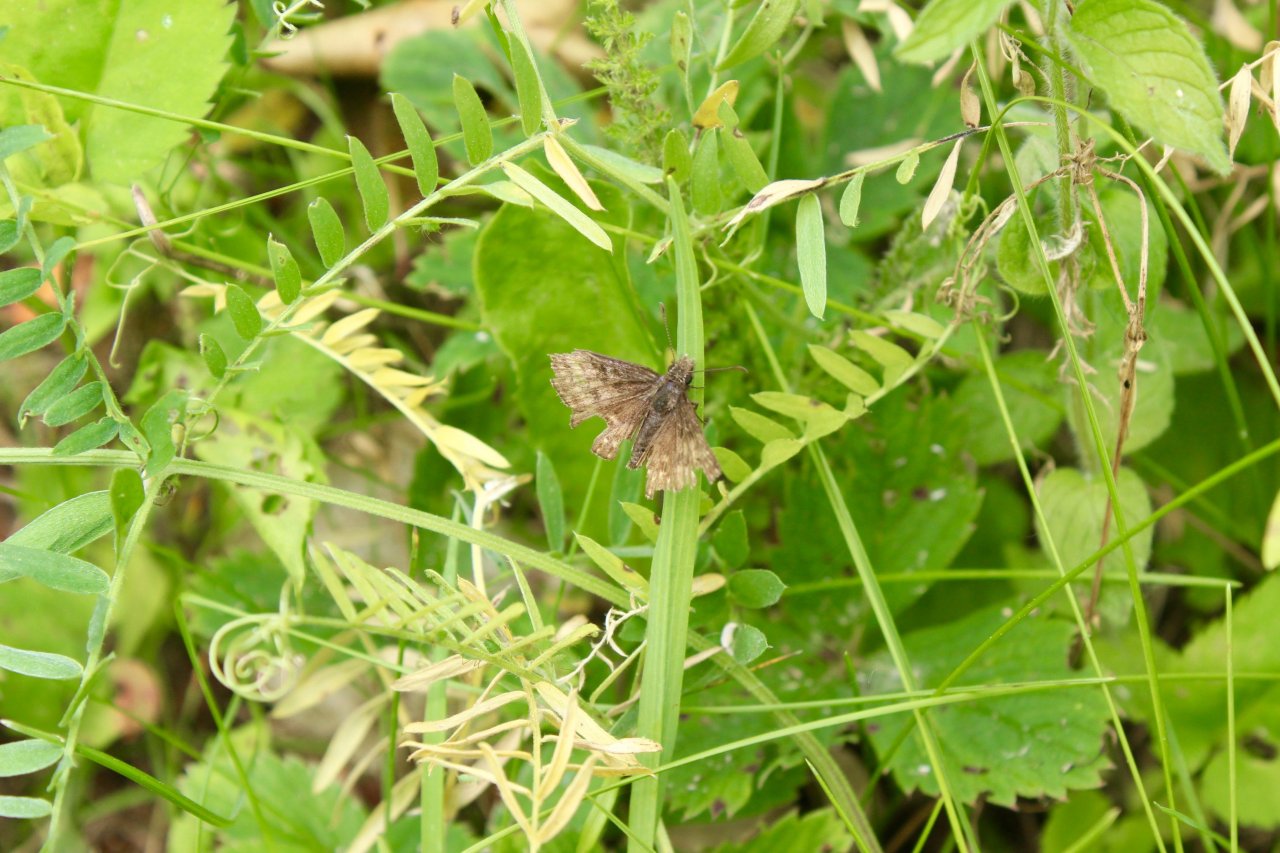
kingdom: Animalia
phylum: Arthropoda
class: Insecta
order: Lepidoptera
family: Hesperiidae
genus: Erynnis
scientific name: Erynnis
